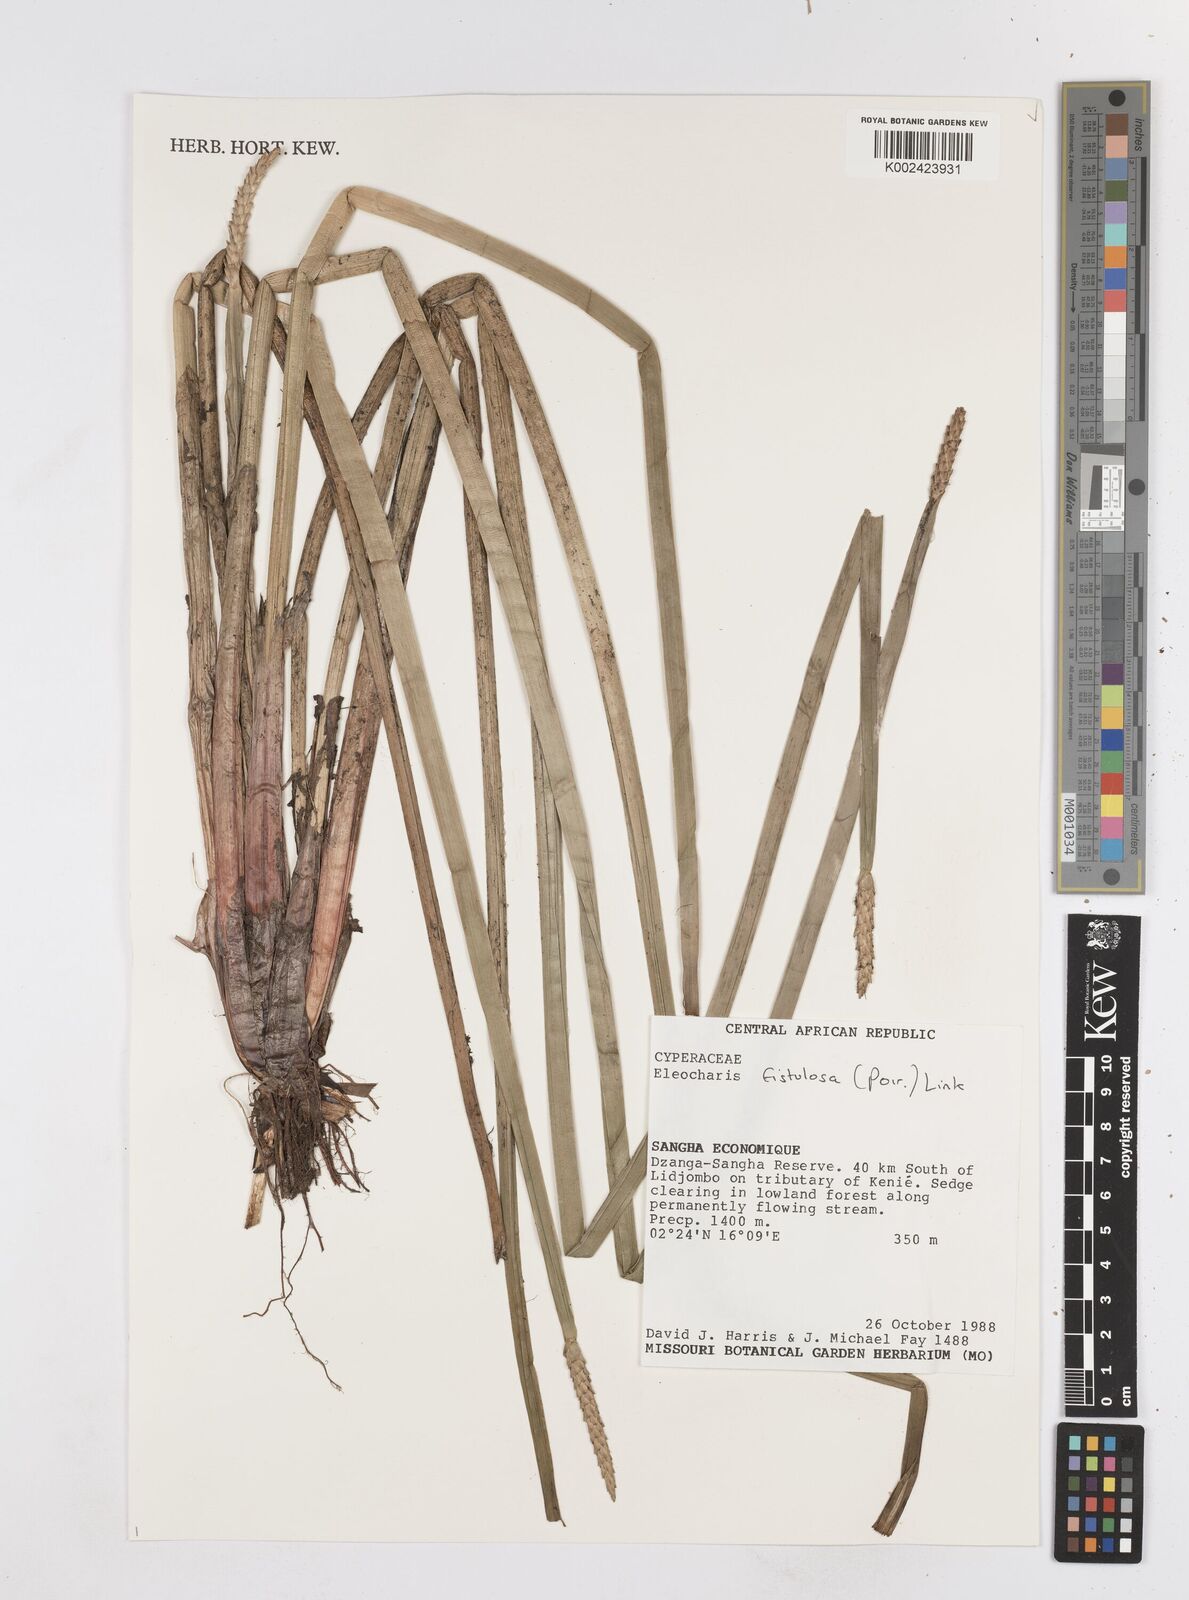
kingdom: Plantae
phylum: Tracheophyta
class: Liliopsida
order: Poales
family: Cyperaceae
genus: Eleocharis
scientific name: Eleocharis acutangula
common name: Acute spikerush
